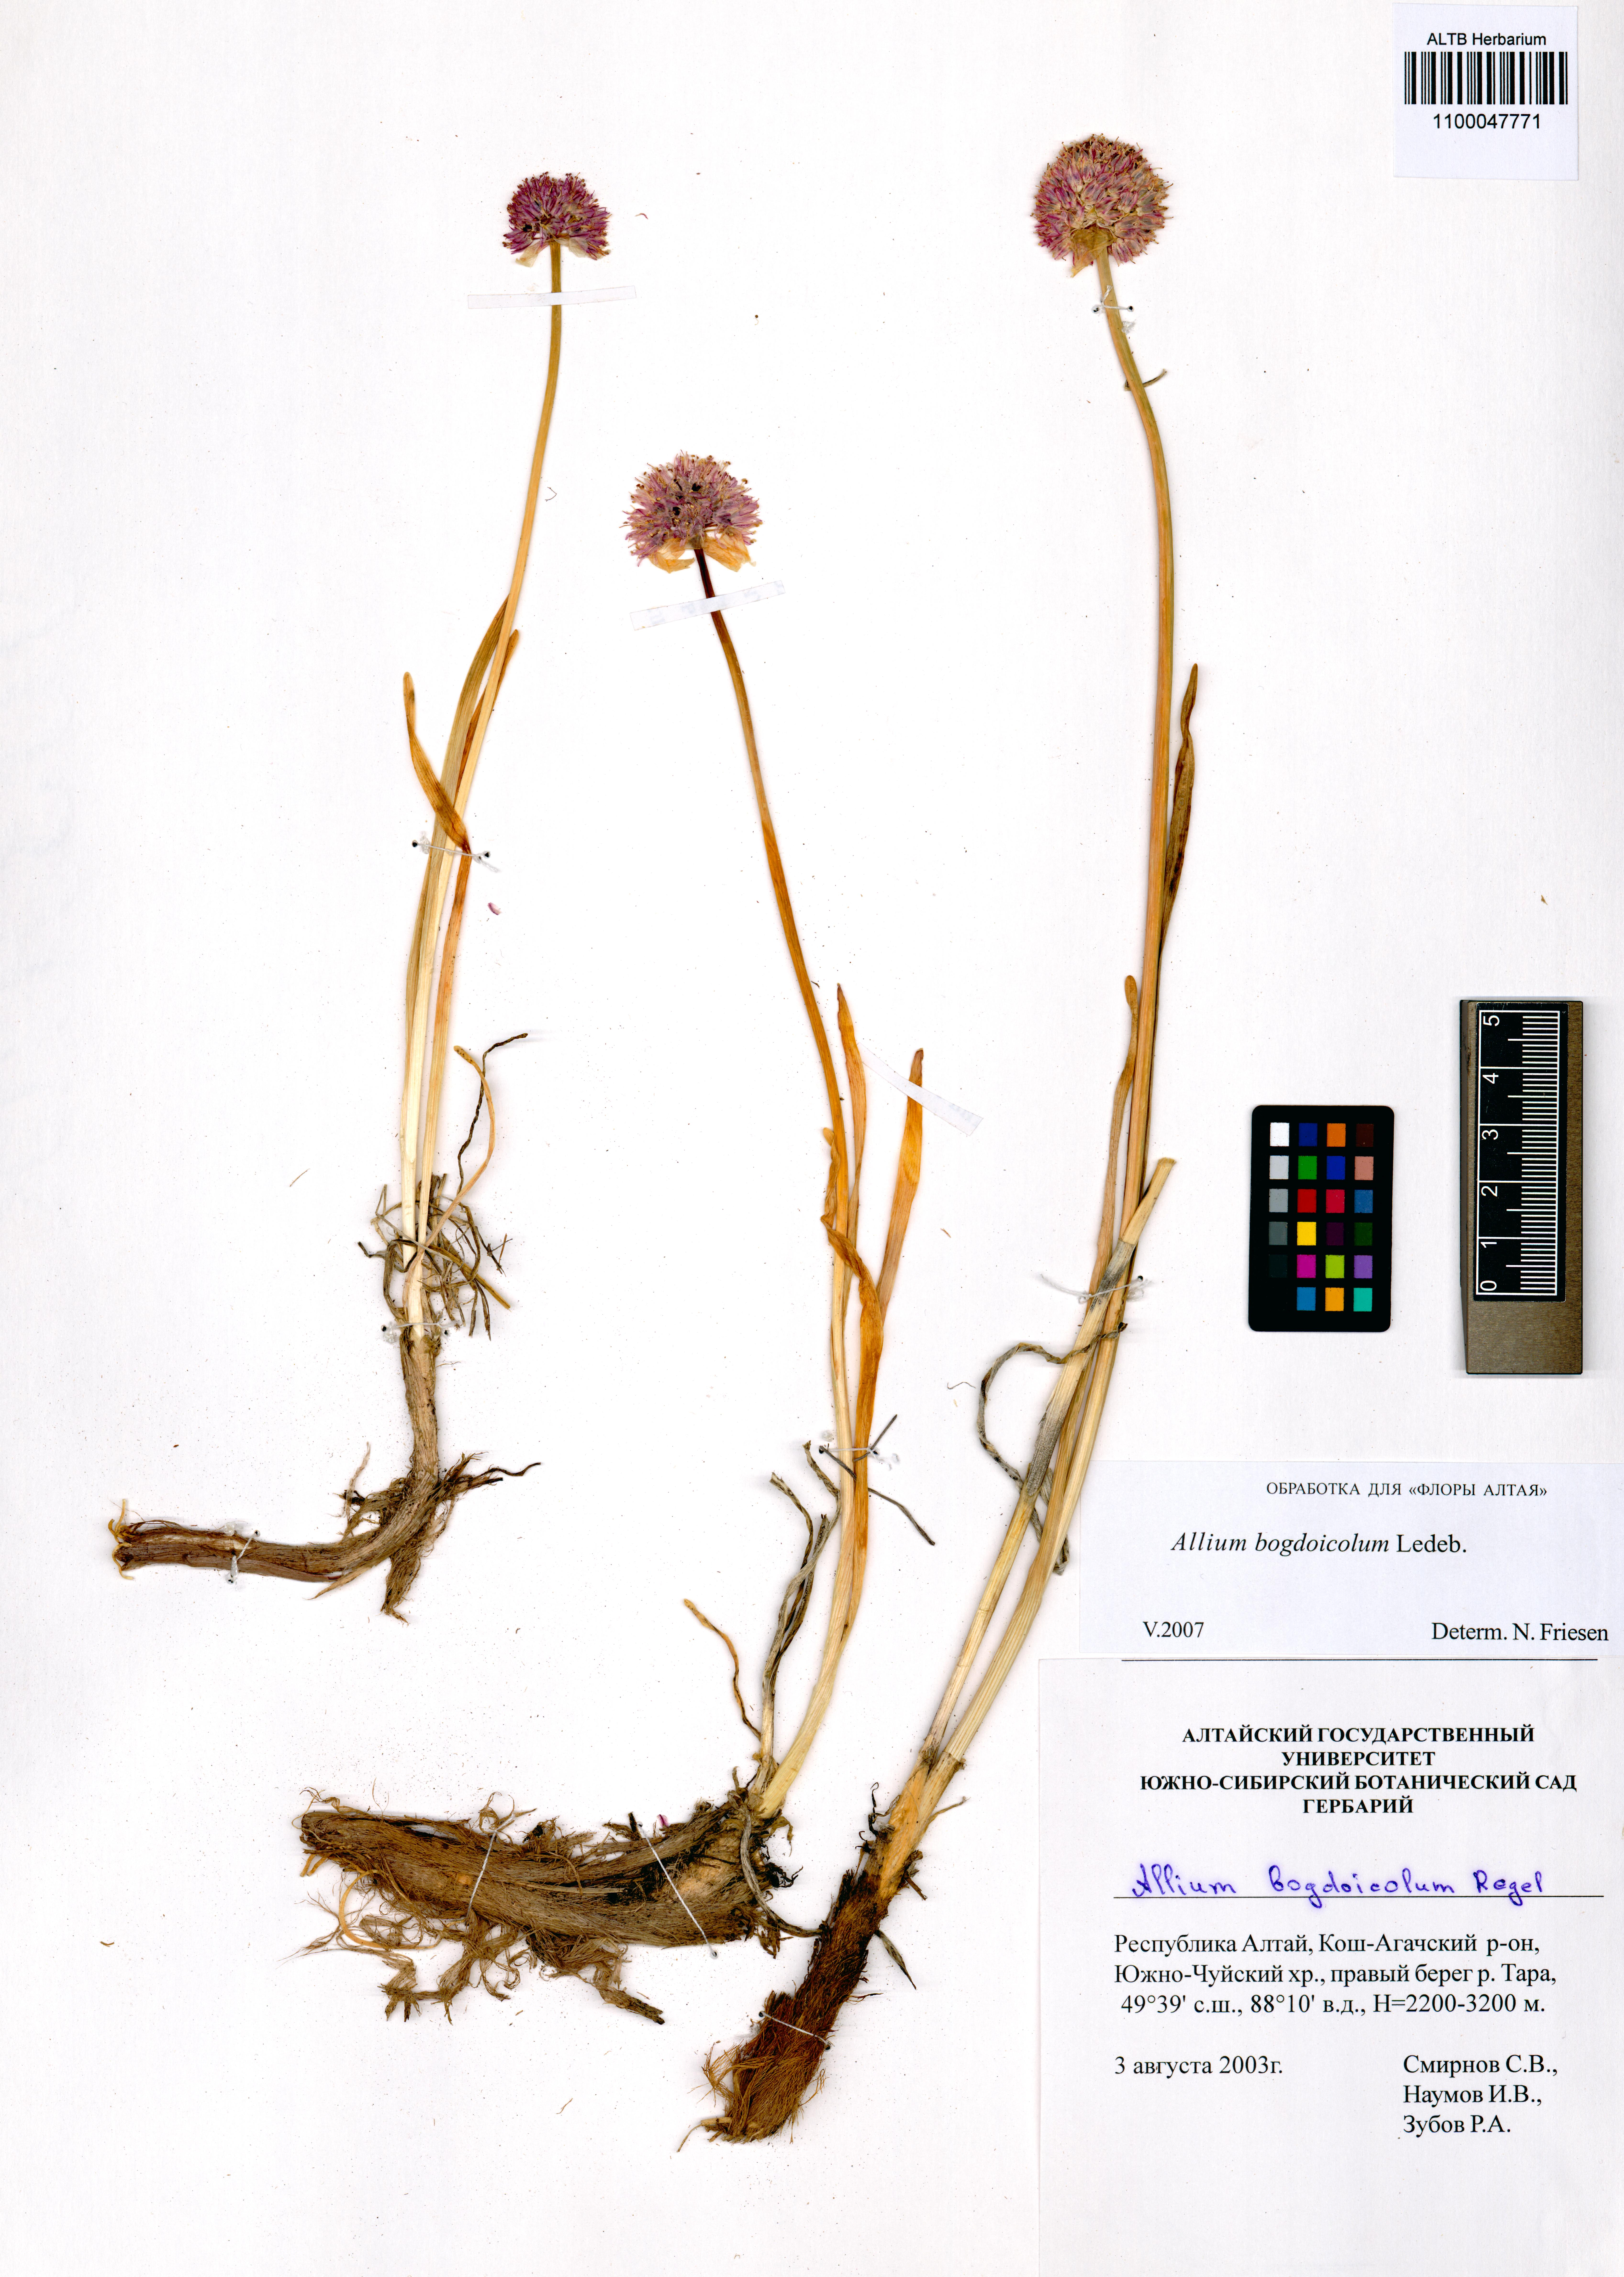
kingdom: Plantae
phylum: Tracheophyta
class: Liliopsida
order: Asparagales
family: Amaryllidaceae
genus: Allium
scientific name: Allium schrenkii
